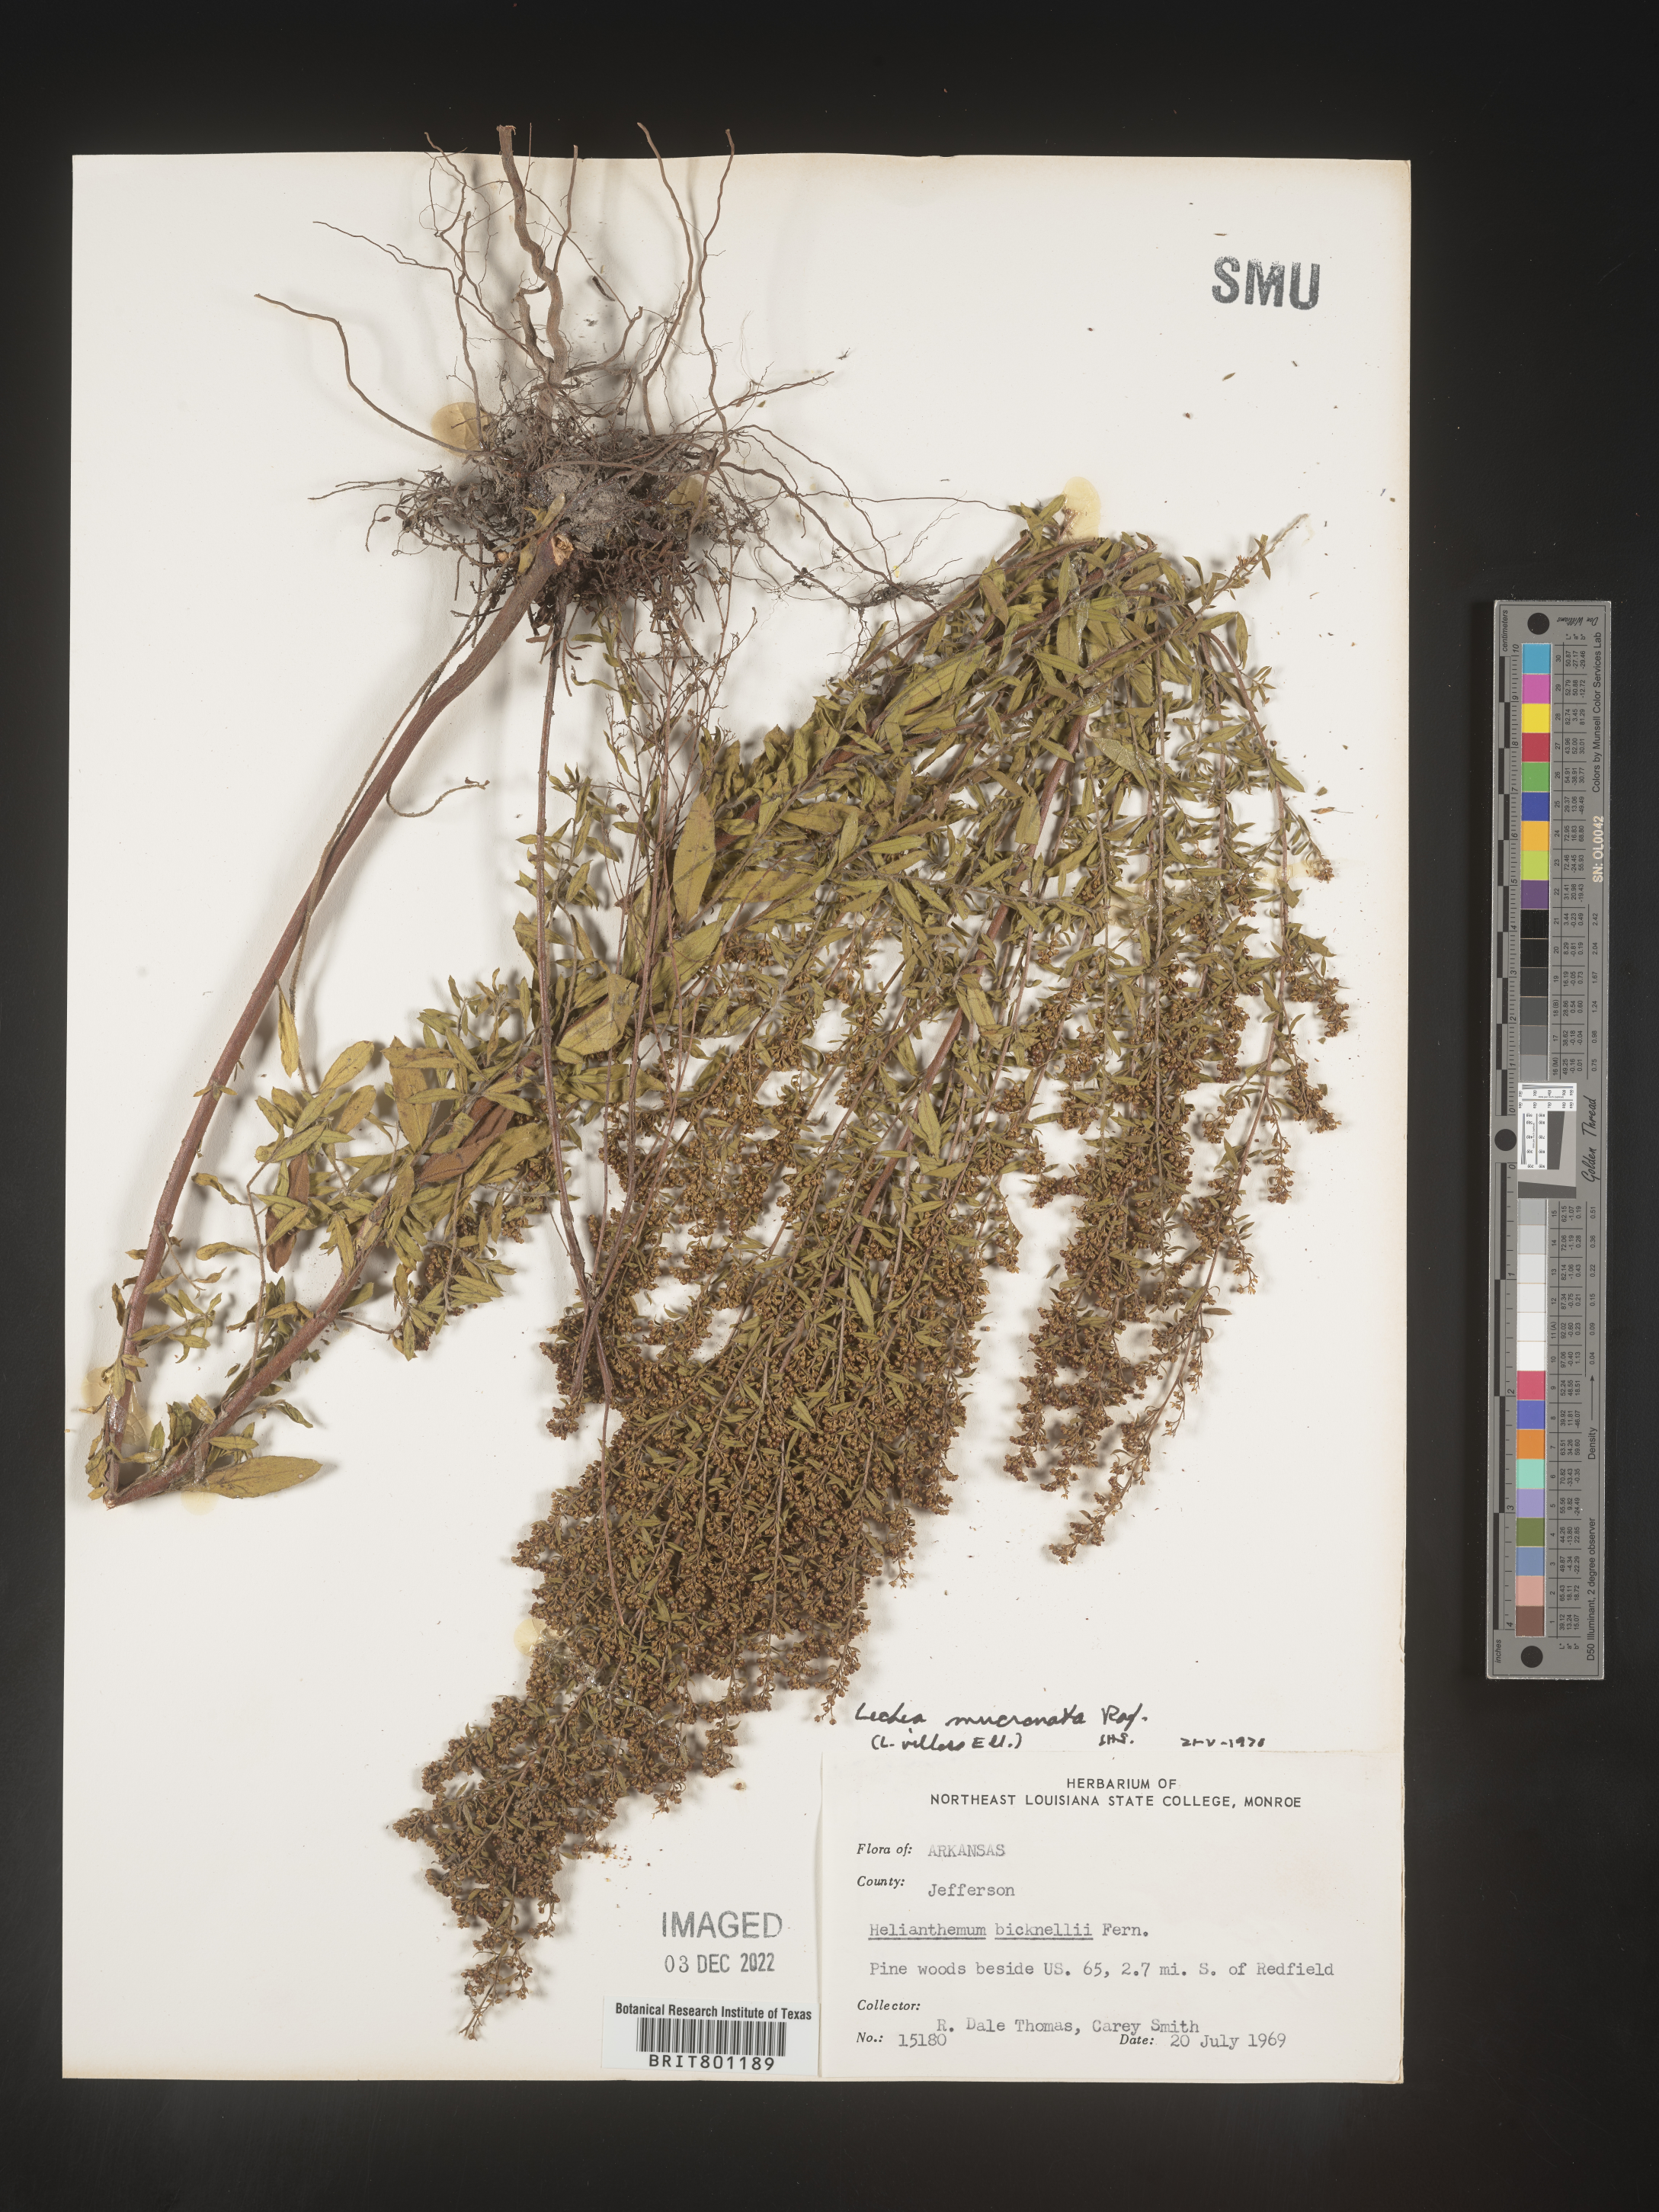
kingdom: Plantae
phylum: Tracheophyta
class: Magnoliopsida
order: Malvales
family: Cistaceae
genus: Lechea
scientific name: Lechea mucronata
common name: Hairy pinweed
